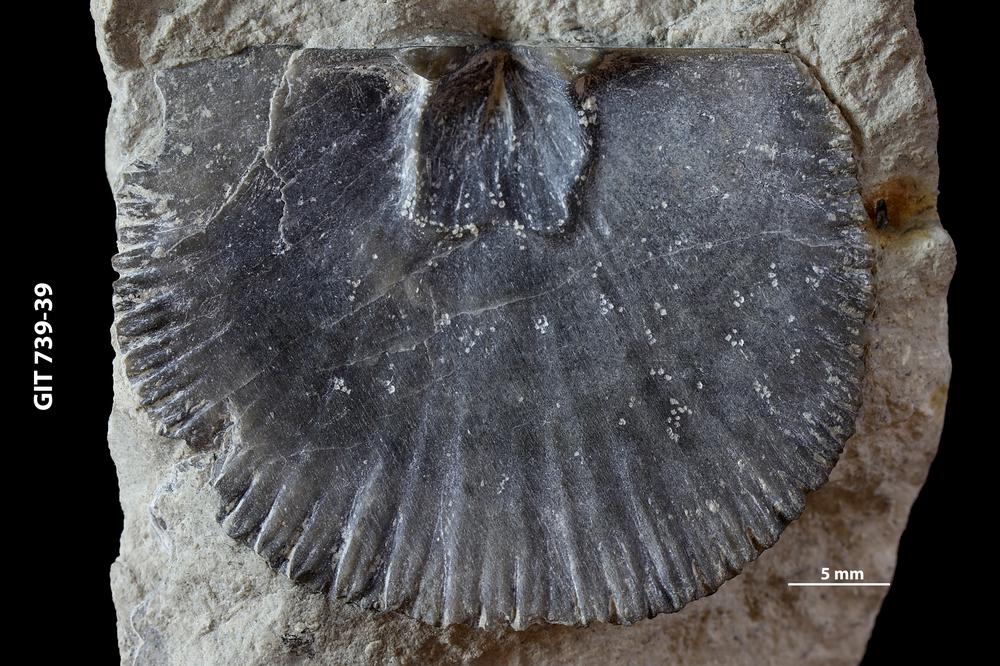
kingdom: Animalia
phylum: Brachiopoda
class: Rhynchonellata
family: Plaesiomyidae
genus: Plaesiomys
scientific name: Plaesiomys
